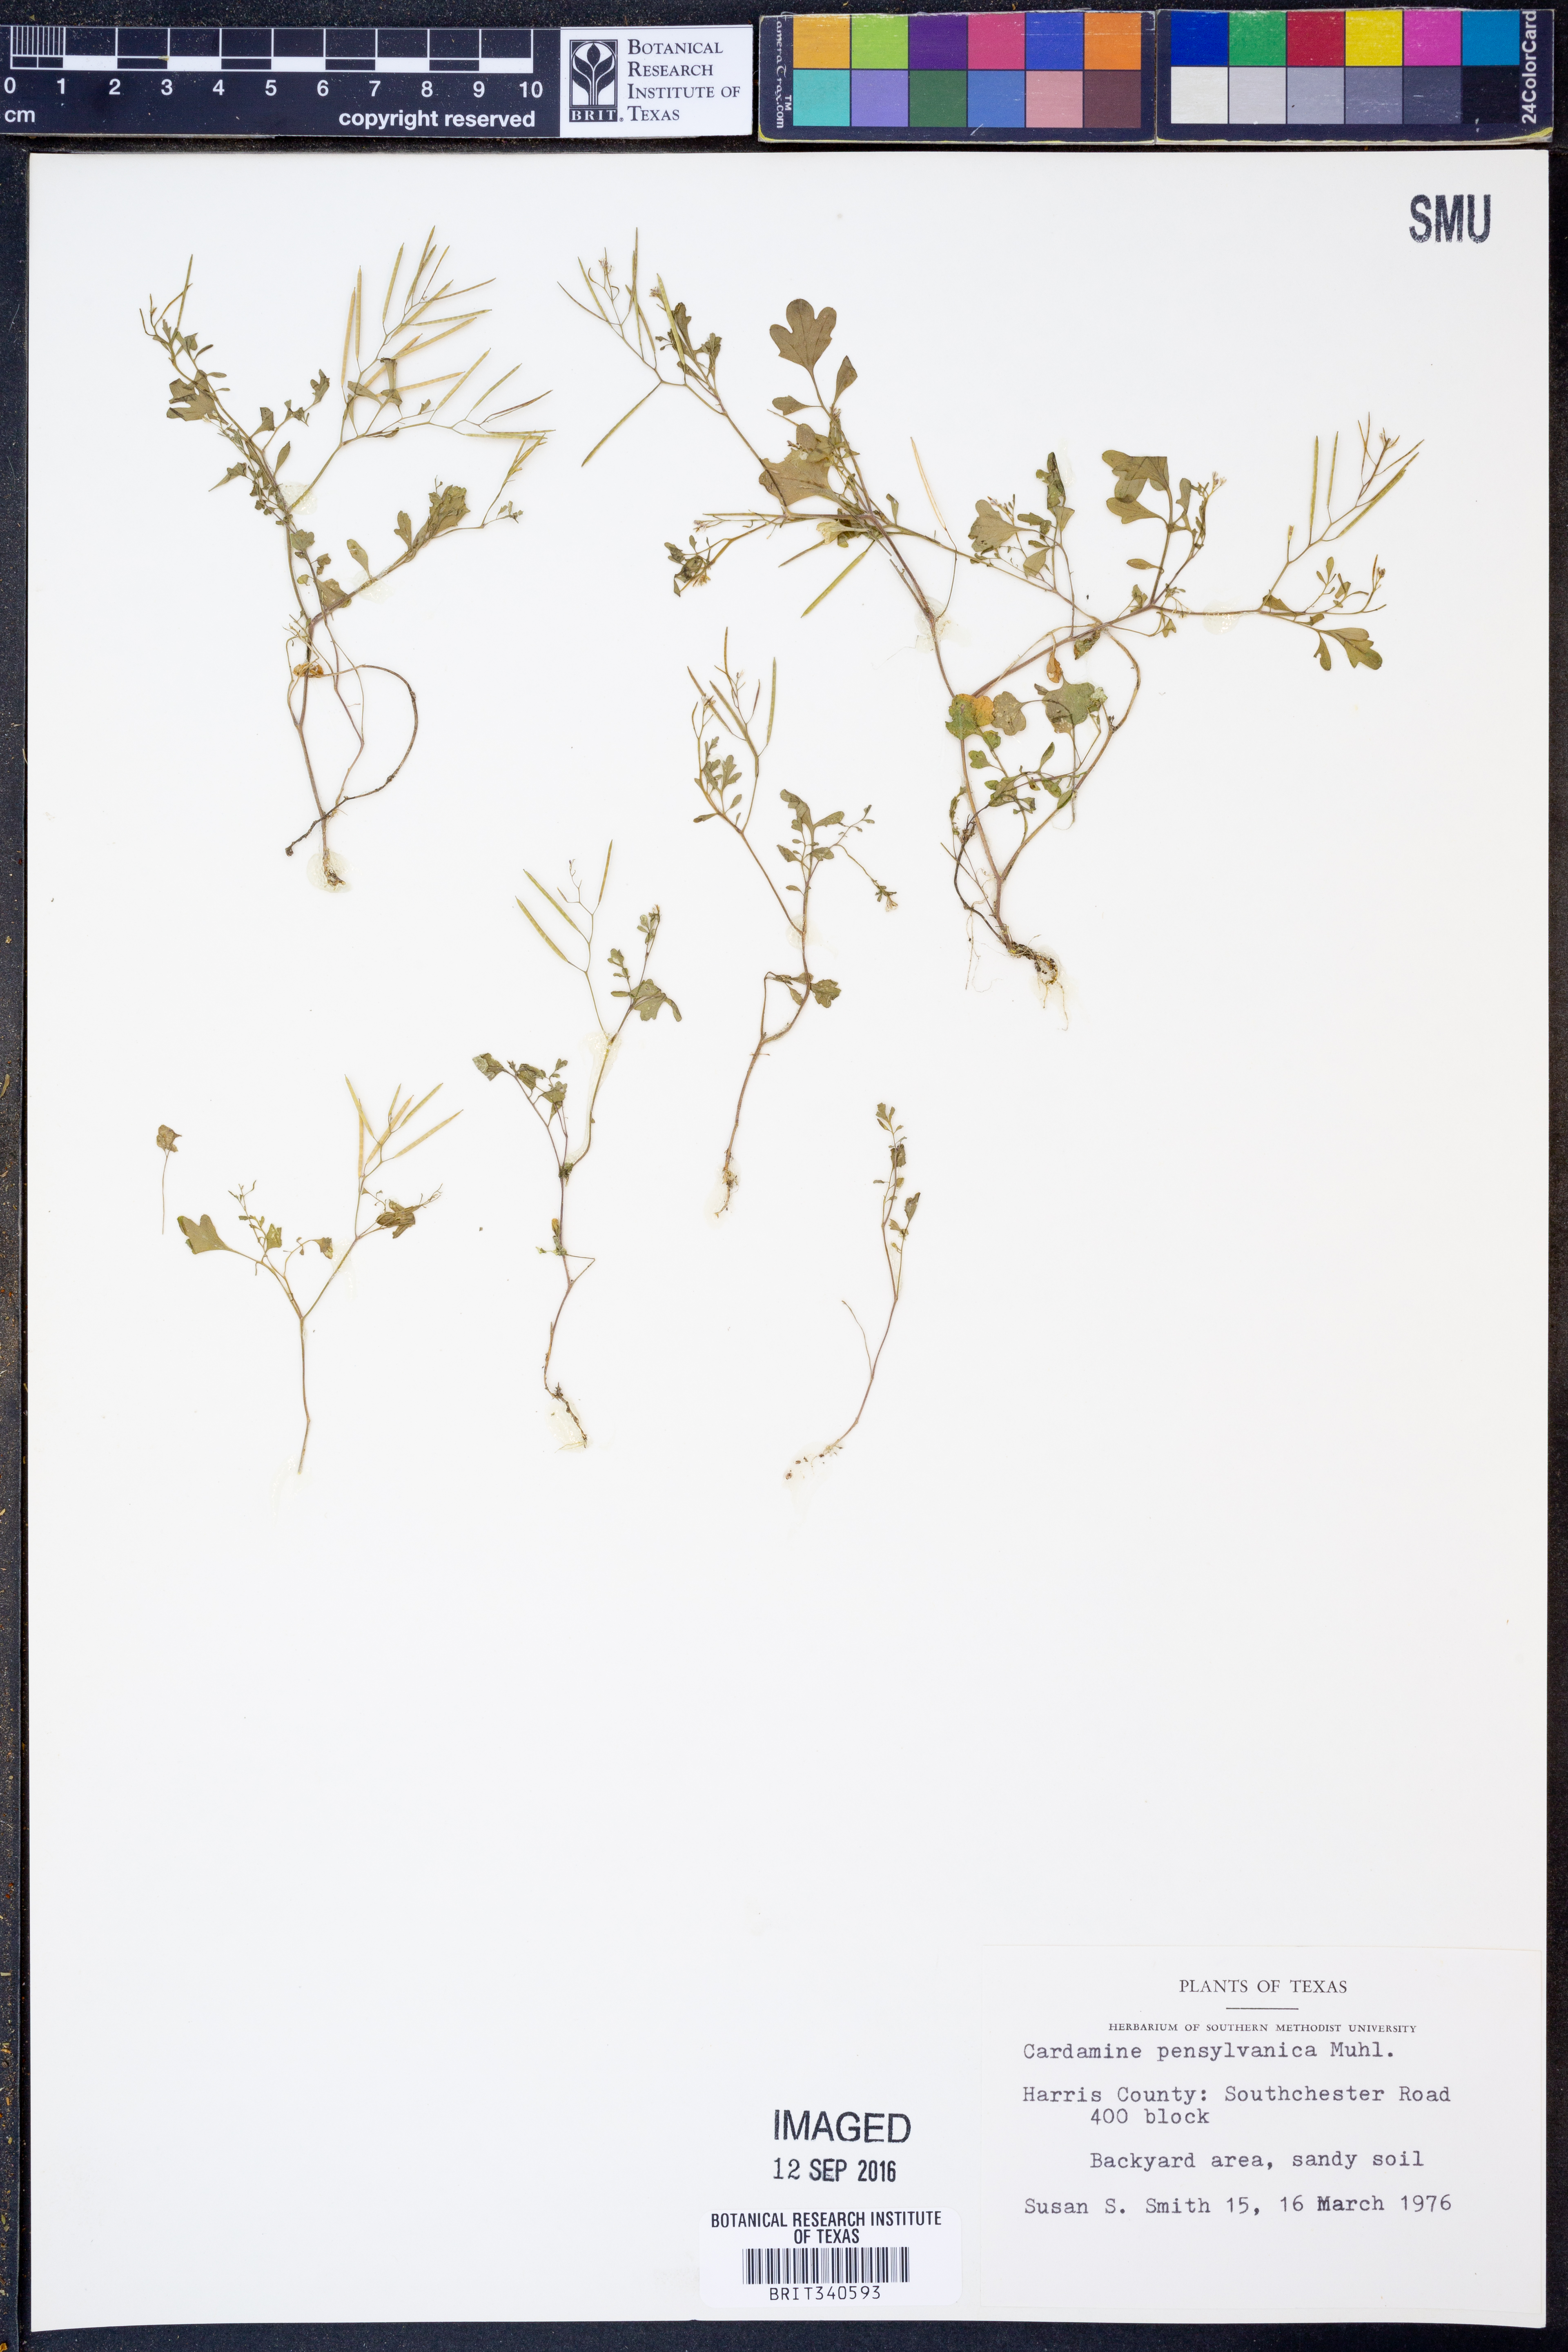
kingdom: Plantae
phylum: Tracheophyta
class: Magnoliopsida
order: Brassicales
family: Brassicaceae
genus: Cardamine
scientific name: Cardamine pensylvanica
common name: Pennsylvania bittercress
